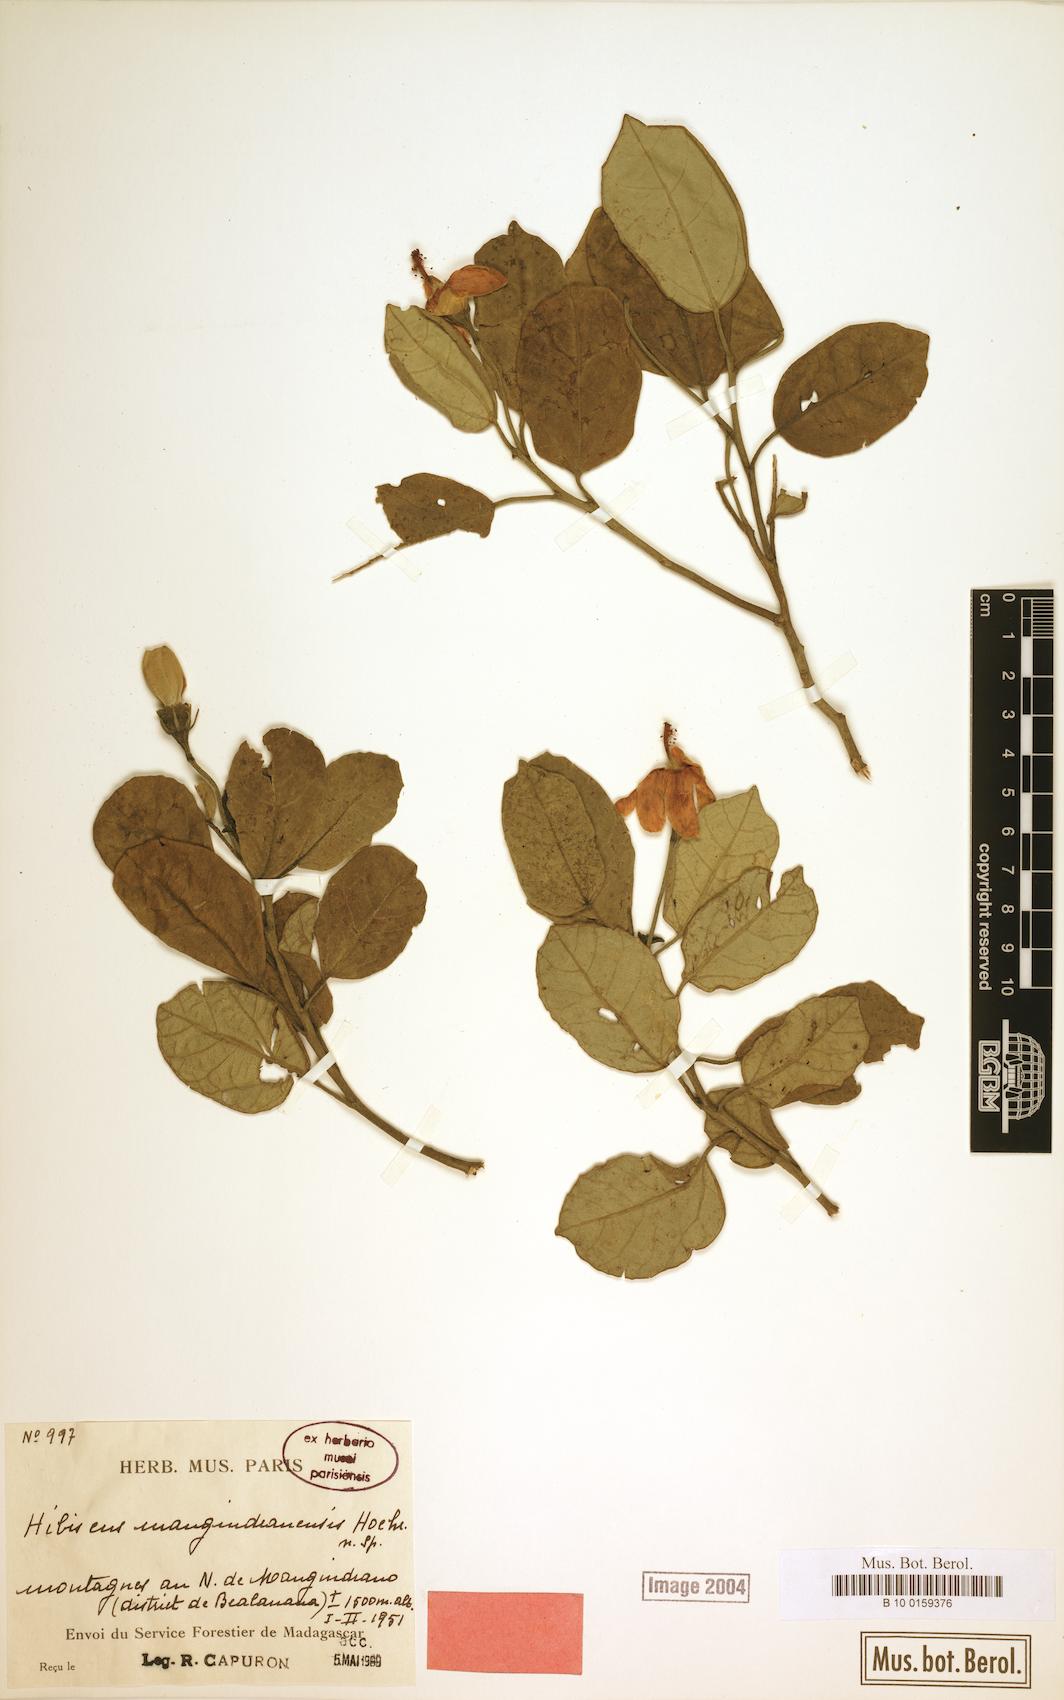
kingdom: Plantae
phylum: Tracheophyta
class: Magnoliopsida
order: Malvales
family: Malvaceae
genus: Hibiscus
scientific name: Hibiscus mangindranensis
